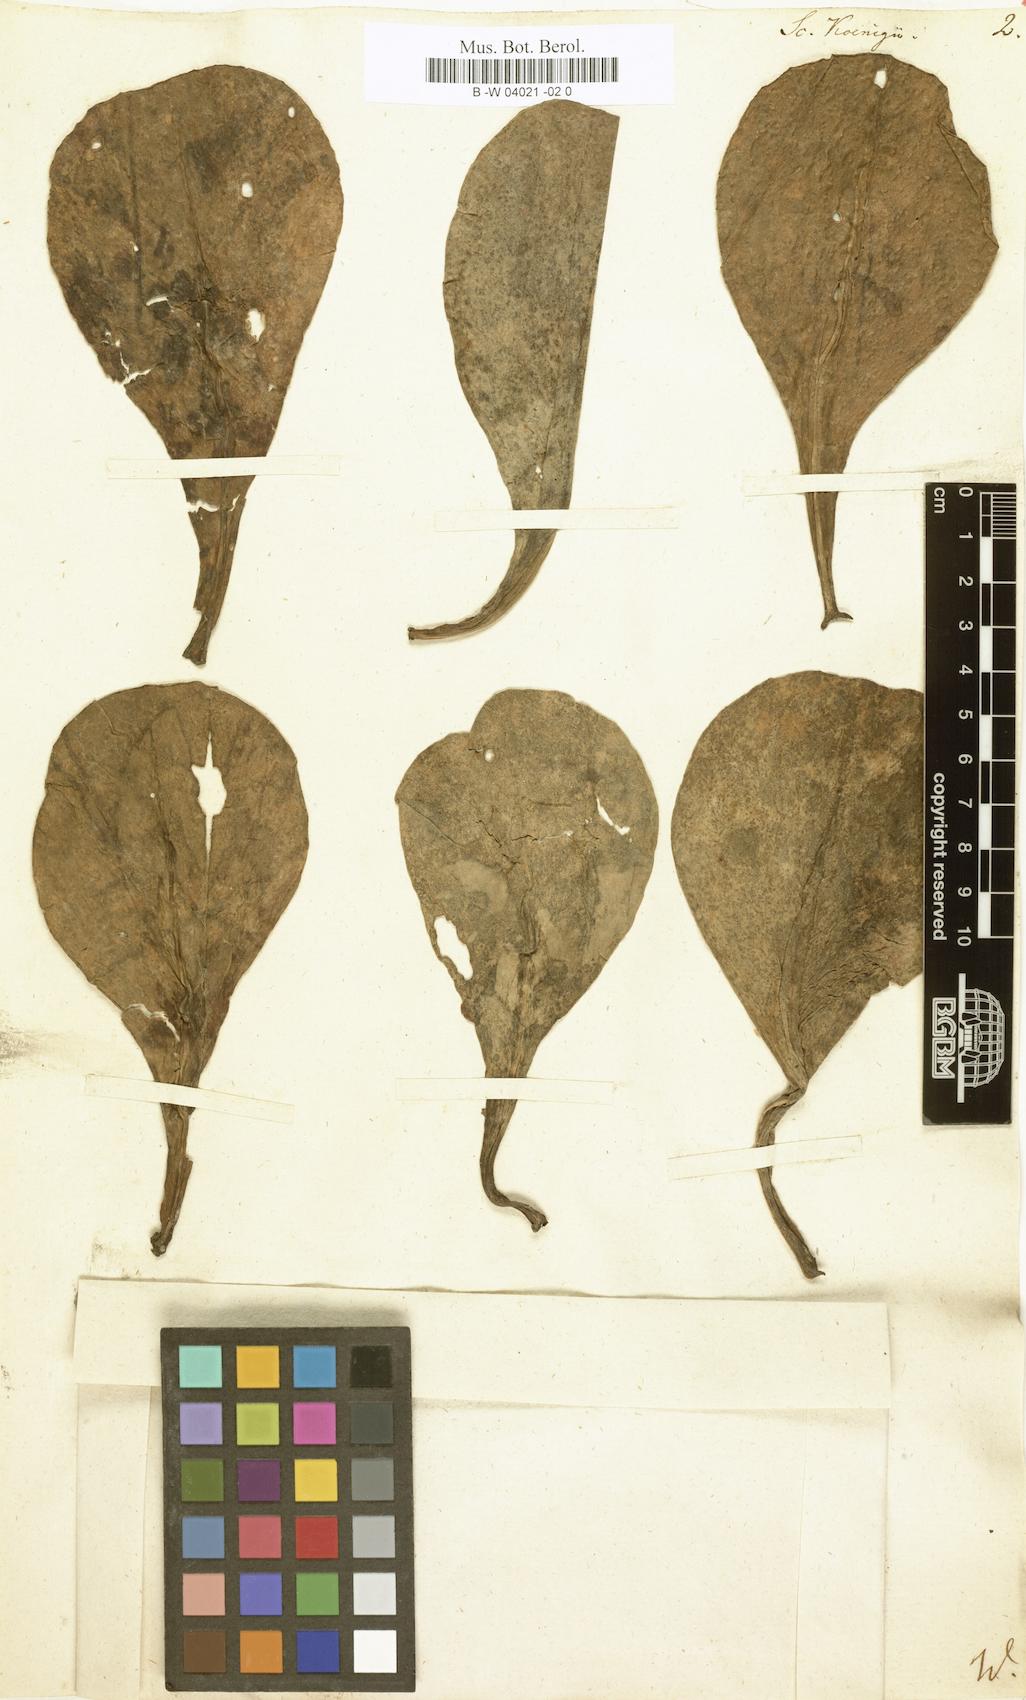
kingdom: Plantae
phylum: Tracheophyta
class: Magnoliopsida
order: Asterales
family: Goodeniaceae
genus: Scaevola
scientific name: Scaevola taccada
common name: Sea lettucetree
